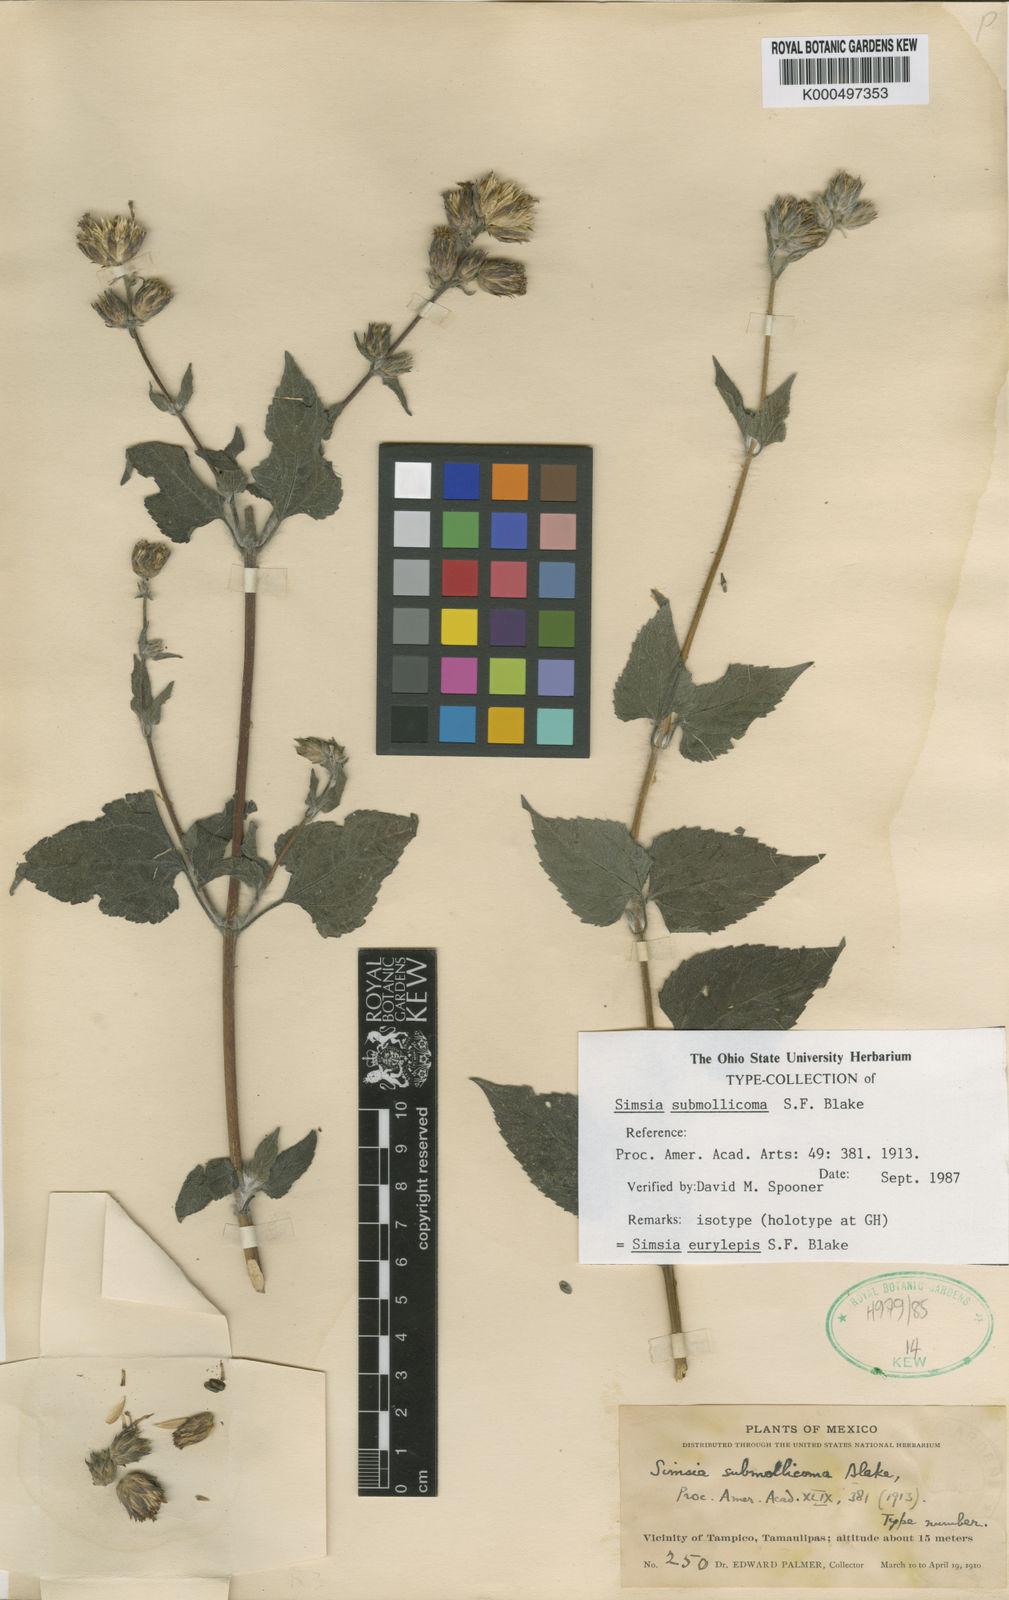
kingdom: Plantae
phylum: Tracheophyta
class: Magnoliopsida
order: Asterales
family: Asteraceae
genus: Simsia
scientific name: Simsia eurylepis
